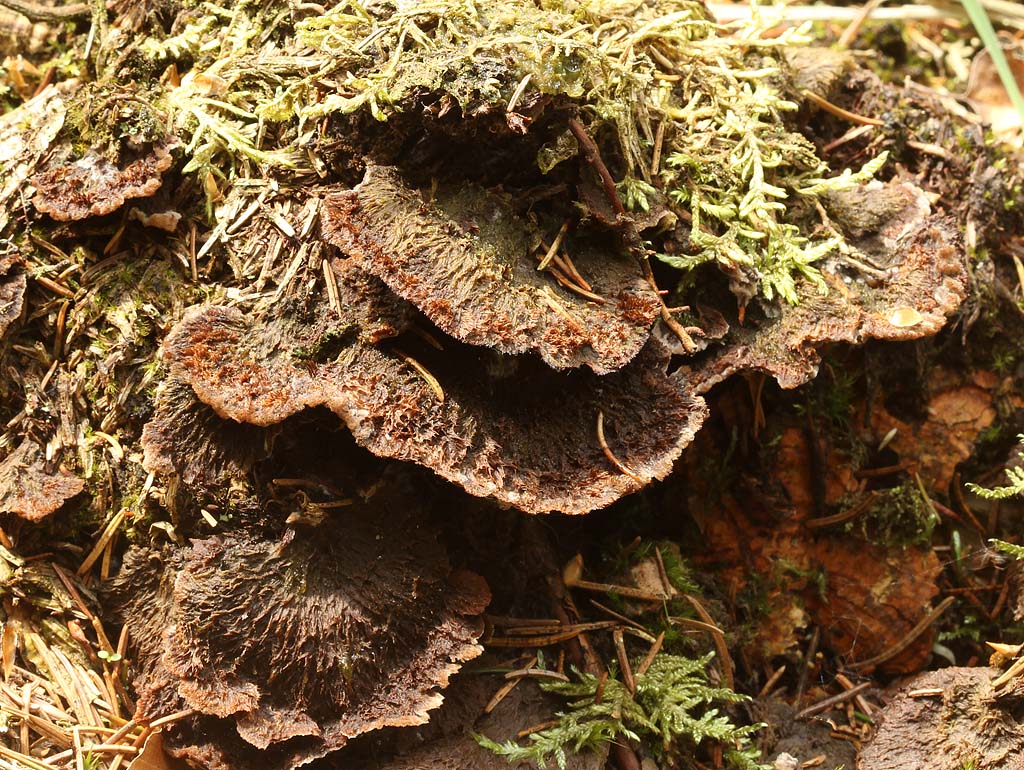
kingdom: Fungi
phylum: Basidiomycota
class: Agaricomycetes
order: Thelephorales
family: Thelephoraceae
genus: Thelephora
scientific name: Thelephora terrestris
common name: fliget frynsesvamp
